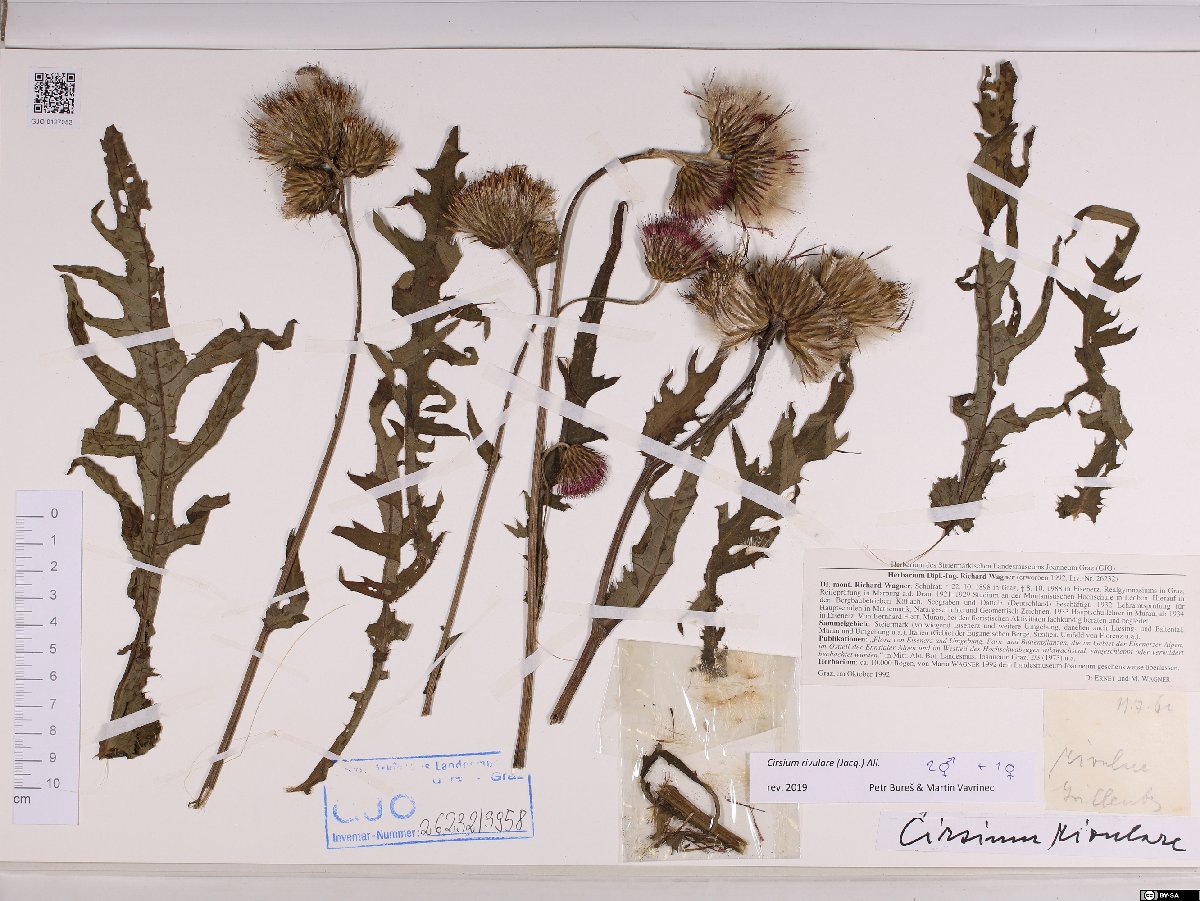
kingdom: Plantae
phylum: Tracheophyta
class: Magnoliopsida
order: Asterales
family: Asteraceae
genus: Cirsium
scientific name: Cirsium rivulare
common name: Brook thistle
